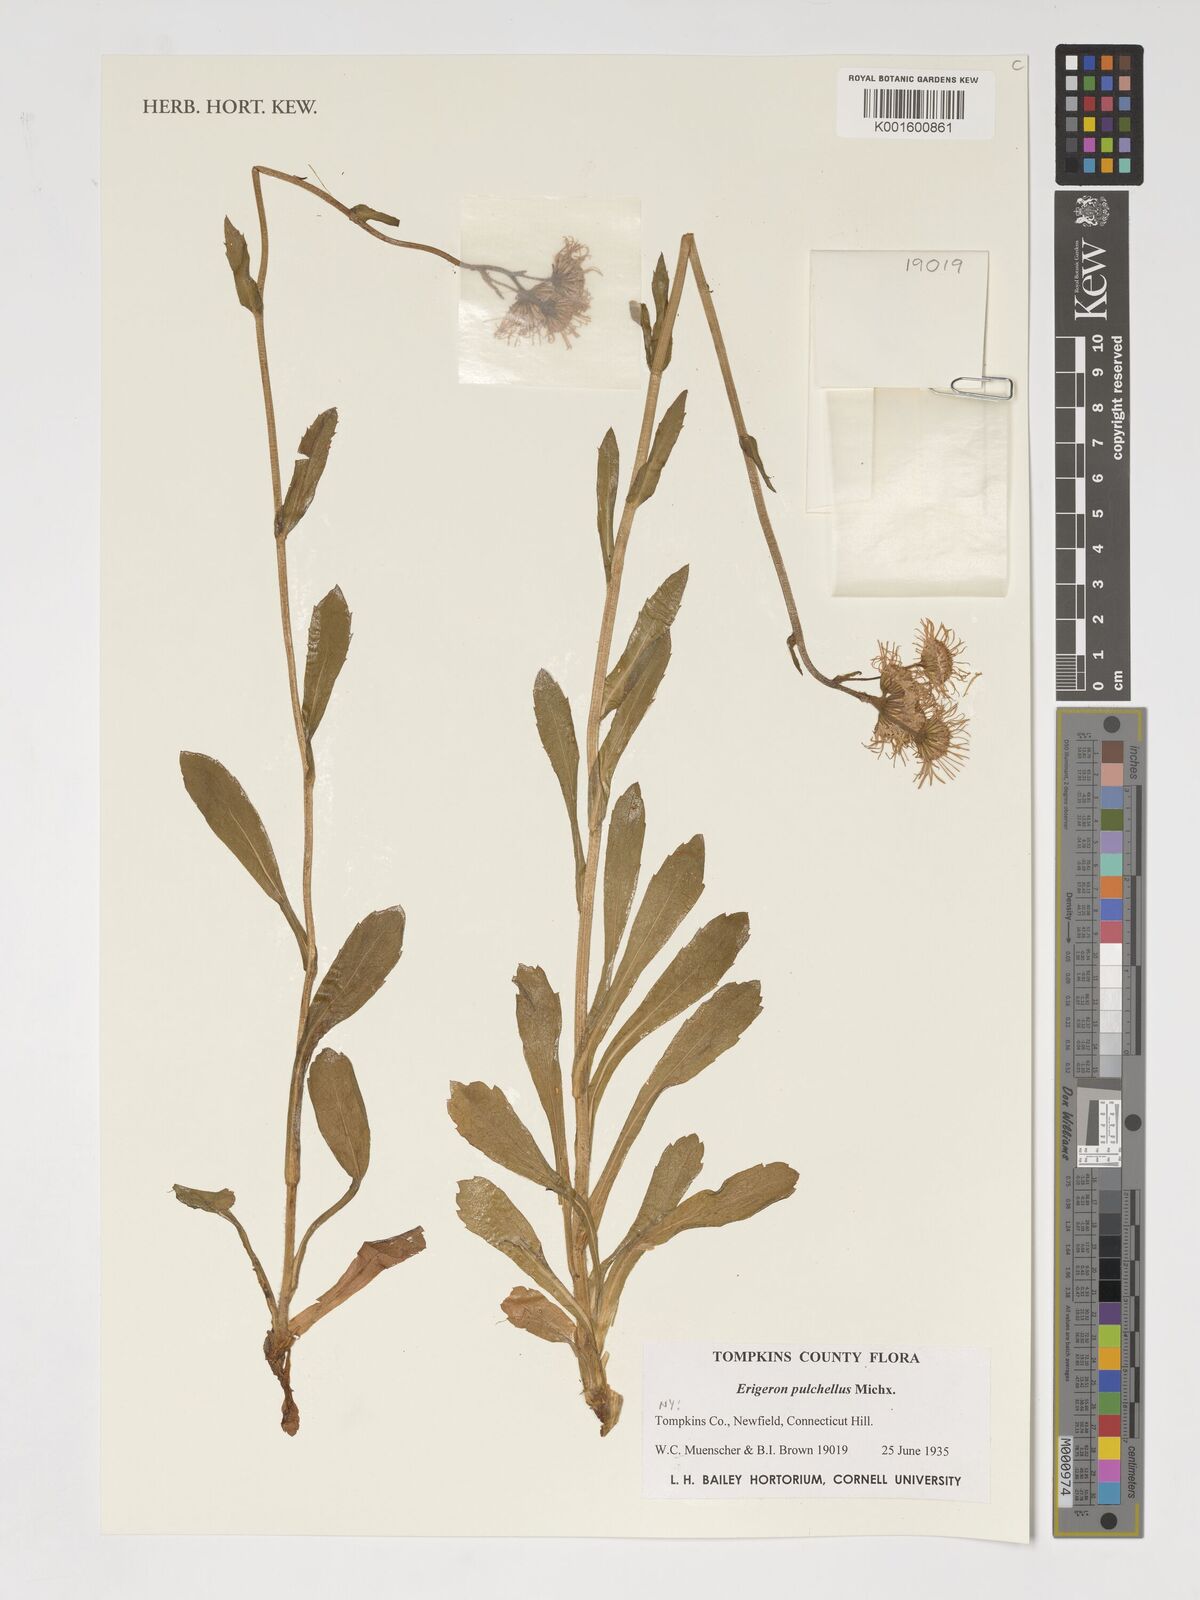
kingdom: Plantae
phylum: Tracheophyta
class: Magnoliopsida
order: Asterales
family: Asteraceae
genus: Erigeron
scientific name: Erigeron pulchellus
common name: Hairy fleabane
